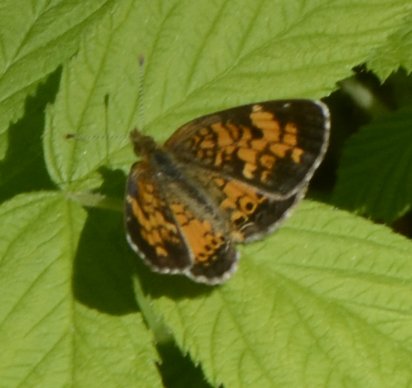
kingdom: Animalia
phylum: Arthropoda
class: Insecta
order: Lepidoptera
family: Nymphalidae
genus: Phyciodes
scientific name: Phyciodes tharos
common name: Northern Crescent
